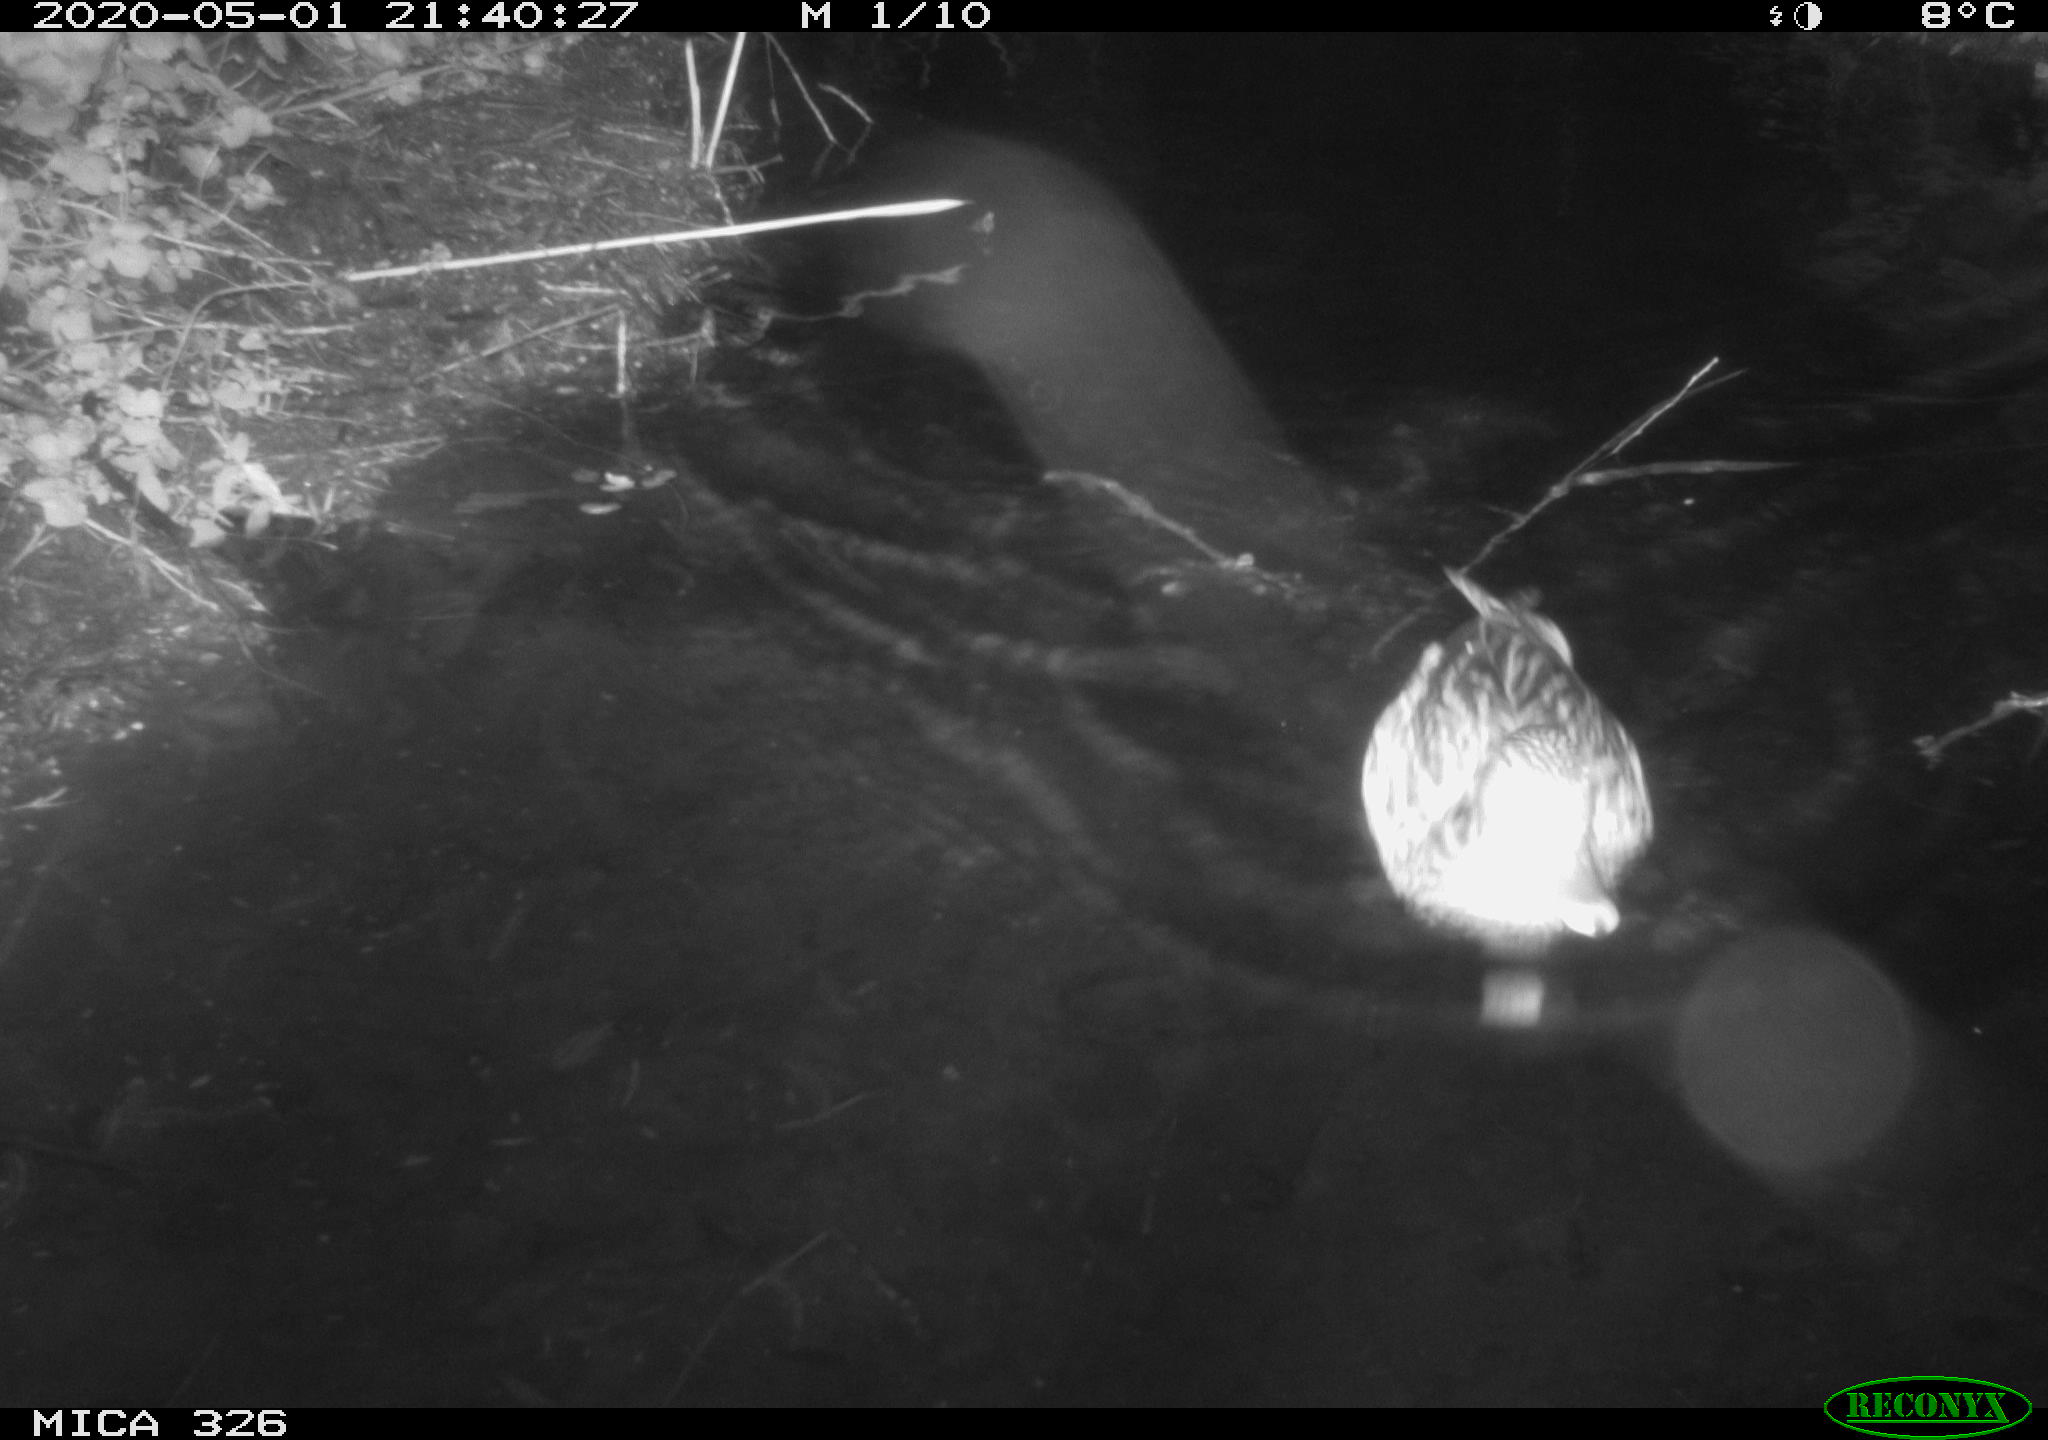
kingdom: Animalia
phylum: Chordata
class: Aves
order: Anseriformes
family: Anatidae
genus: Anas
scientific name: Anas platyrhynchos
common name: Mallard
